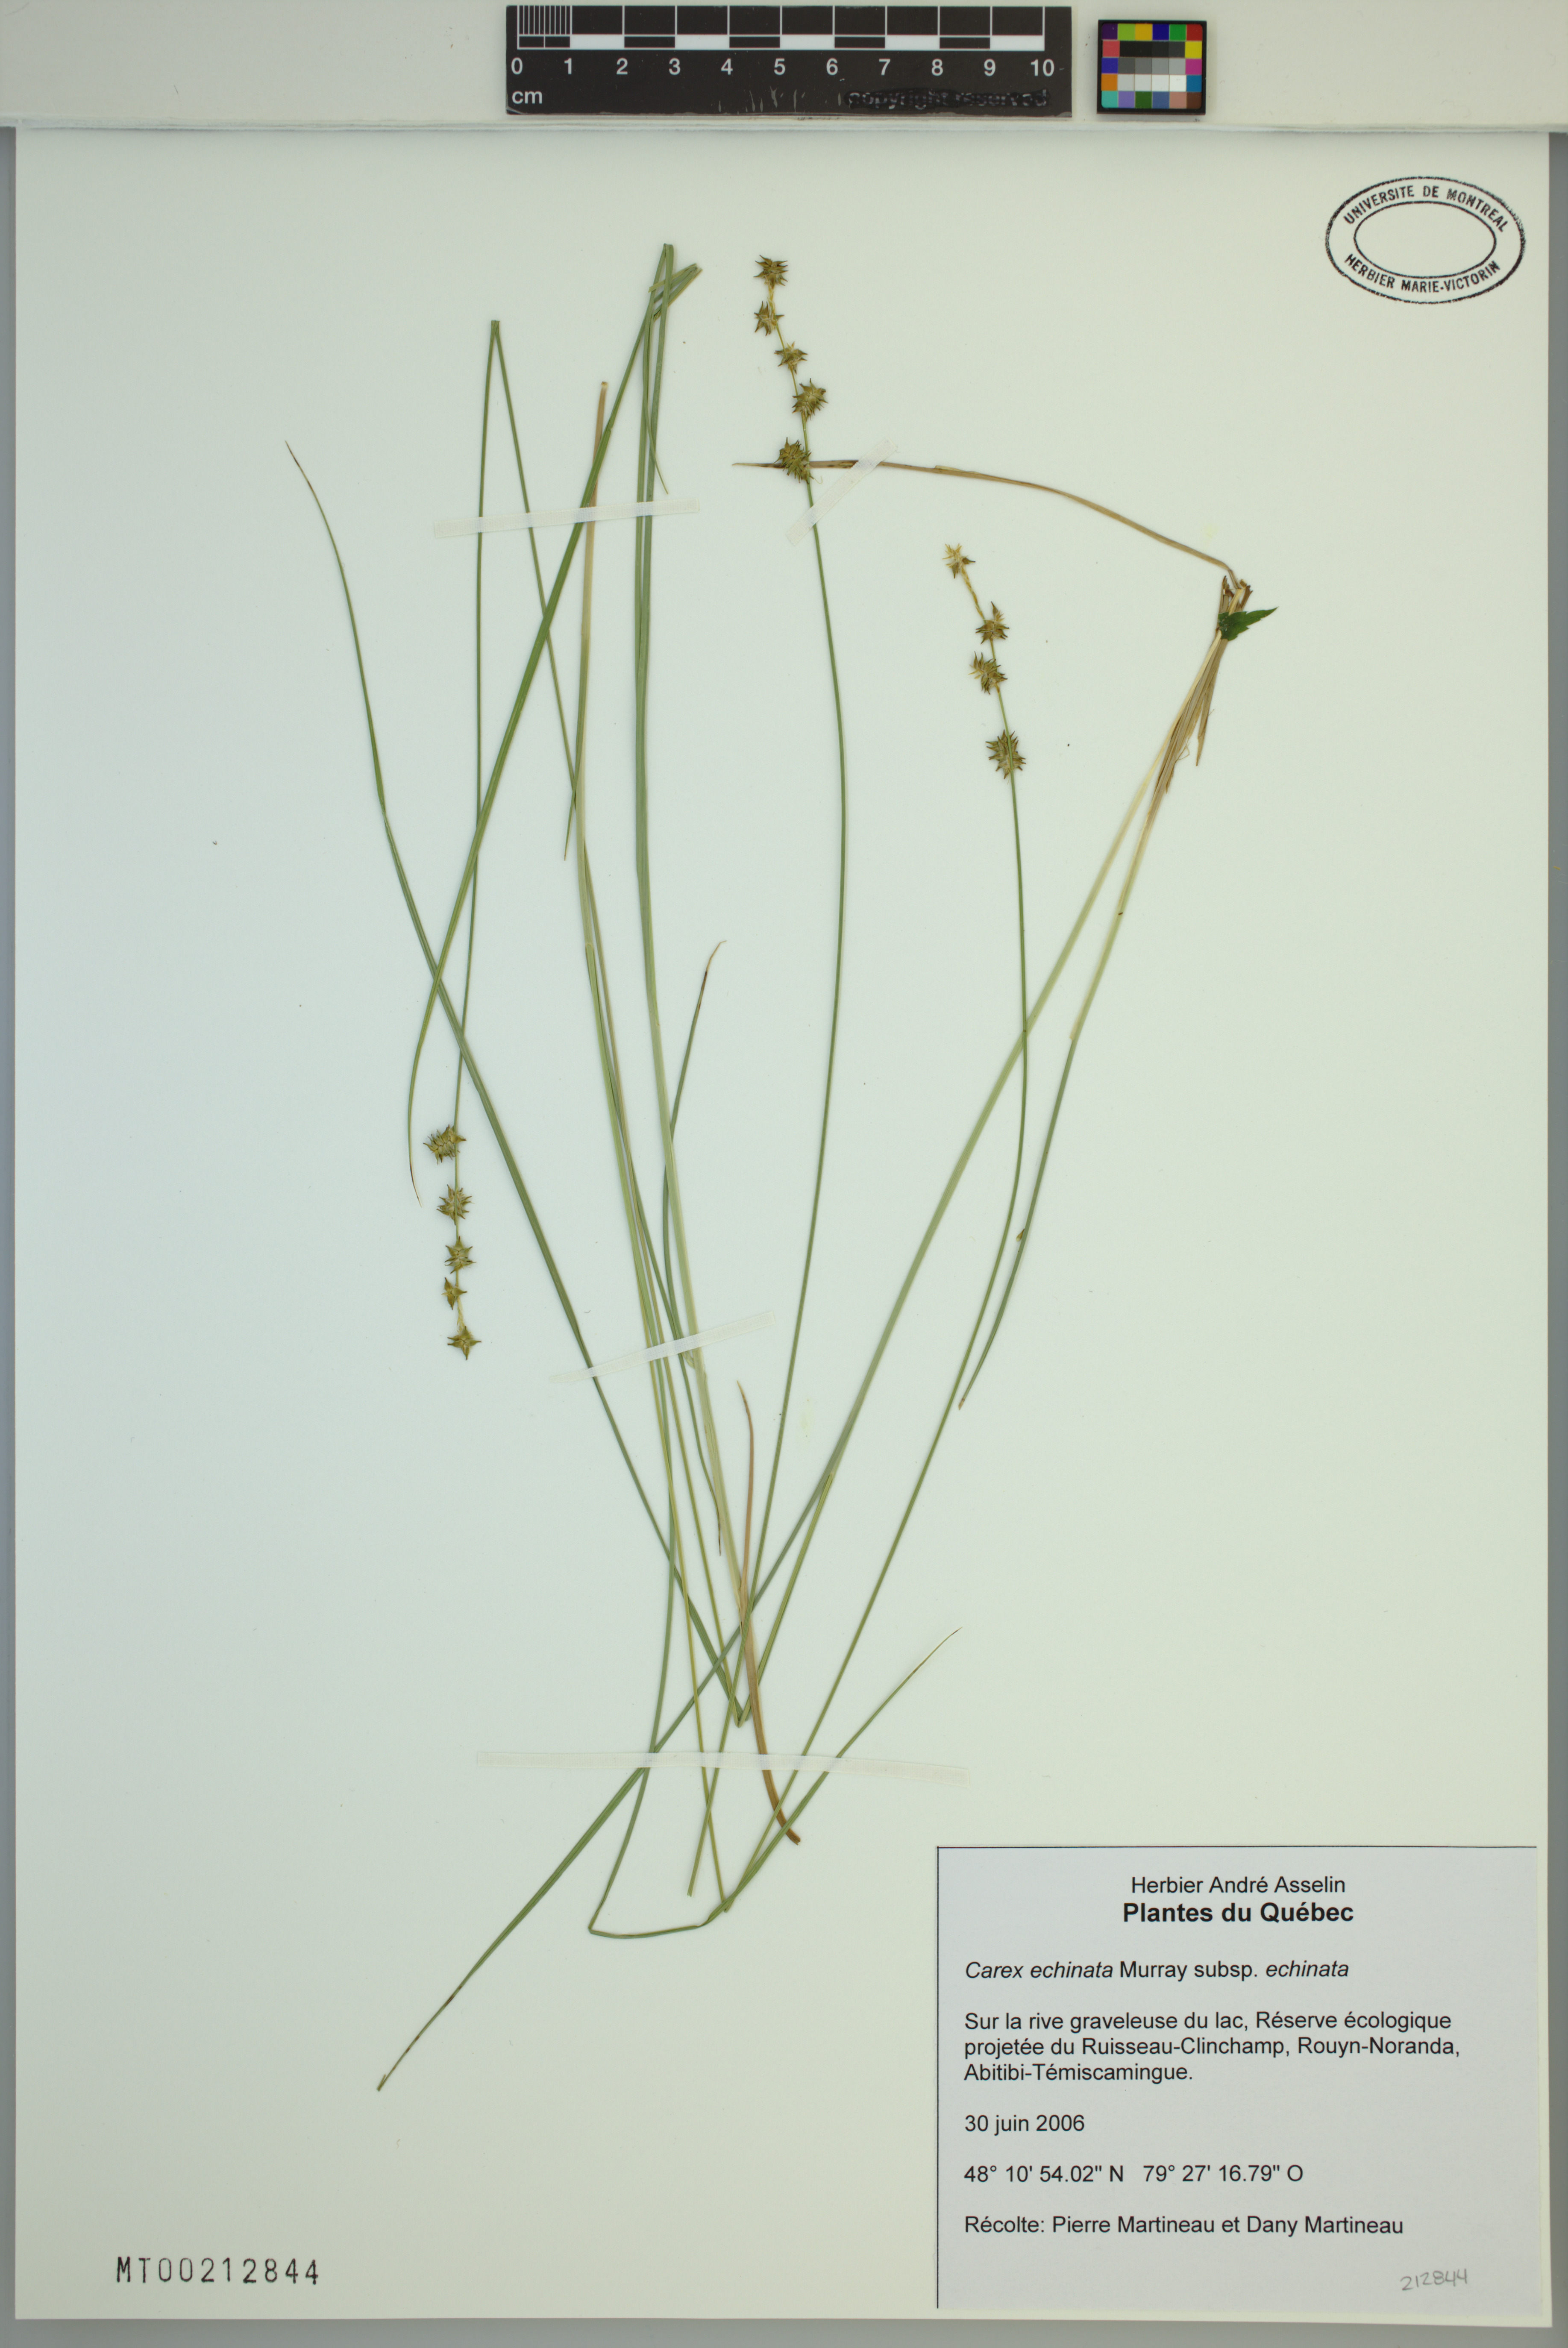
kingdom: Plantae
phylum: Tracheophyta
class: Liliopsida
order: Poales
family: Cyperaceae
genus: Carex
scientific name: Carex echinata
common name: Star sedge
